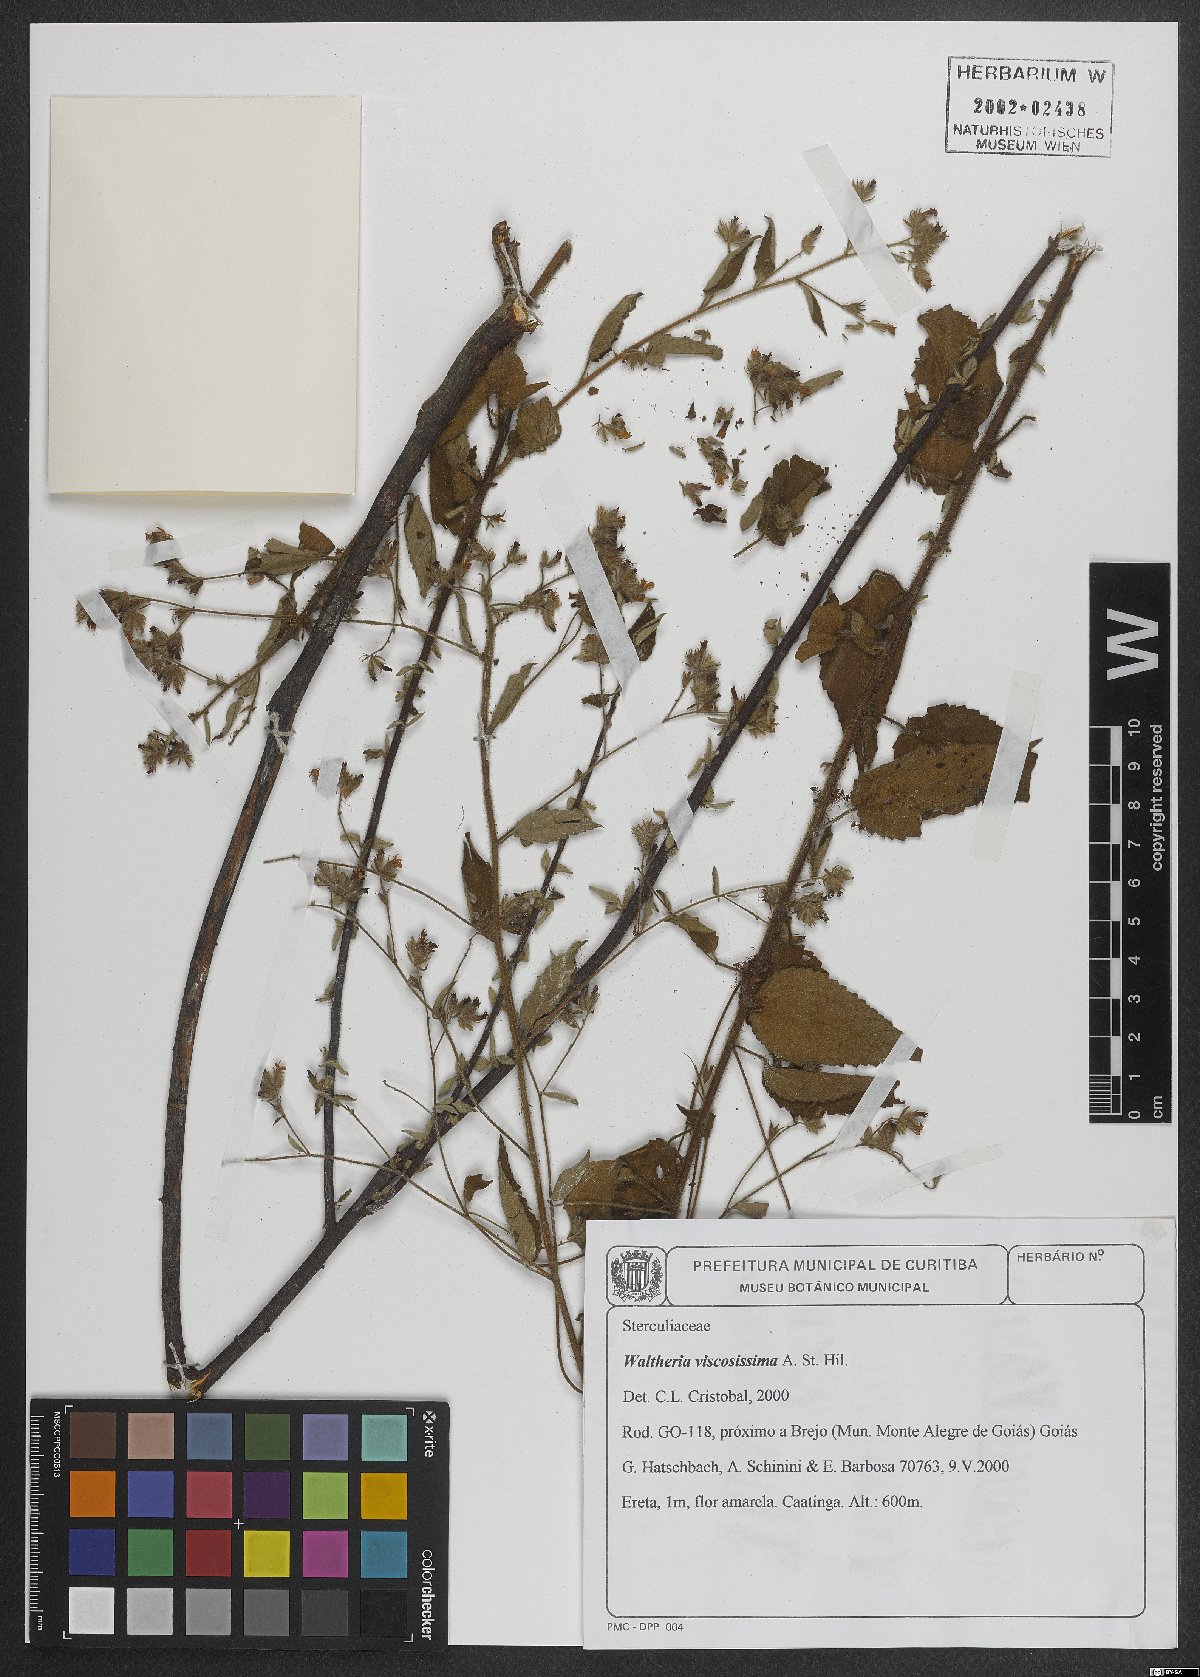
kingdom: Plantae
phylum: Tracheophyta
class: Magnoliopsida
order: Malvales
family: Malvaceae
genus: Waltheria
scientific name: Waltheria viscosissima
